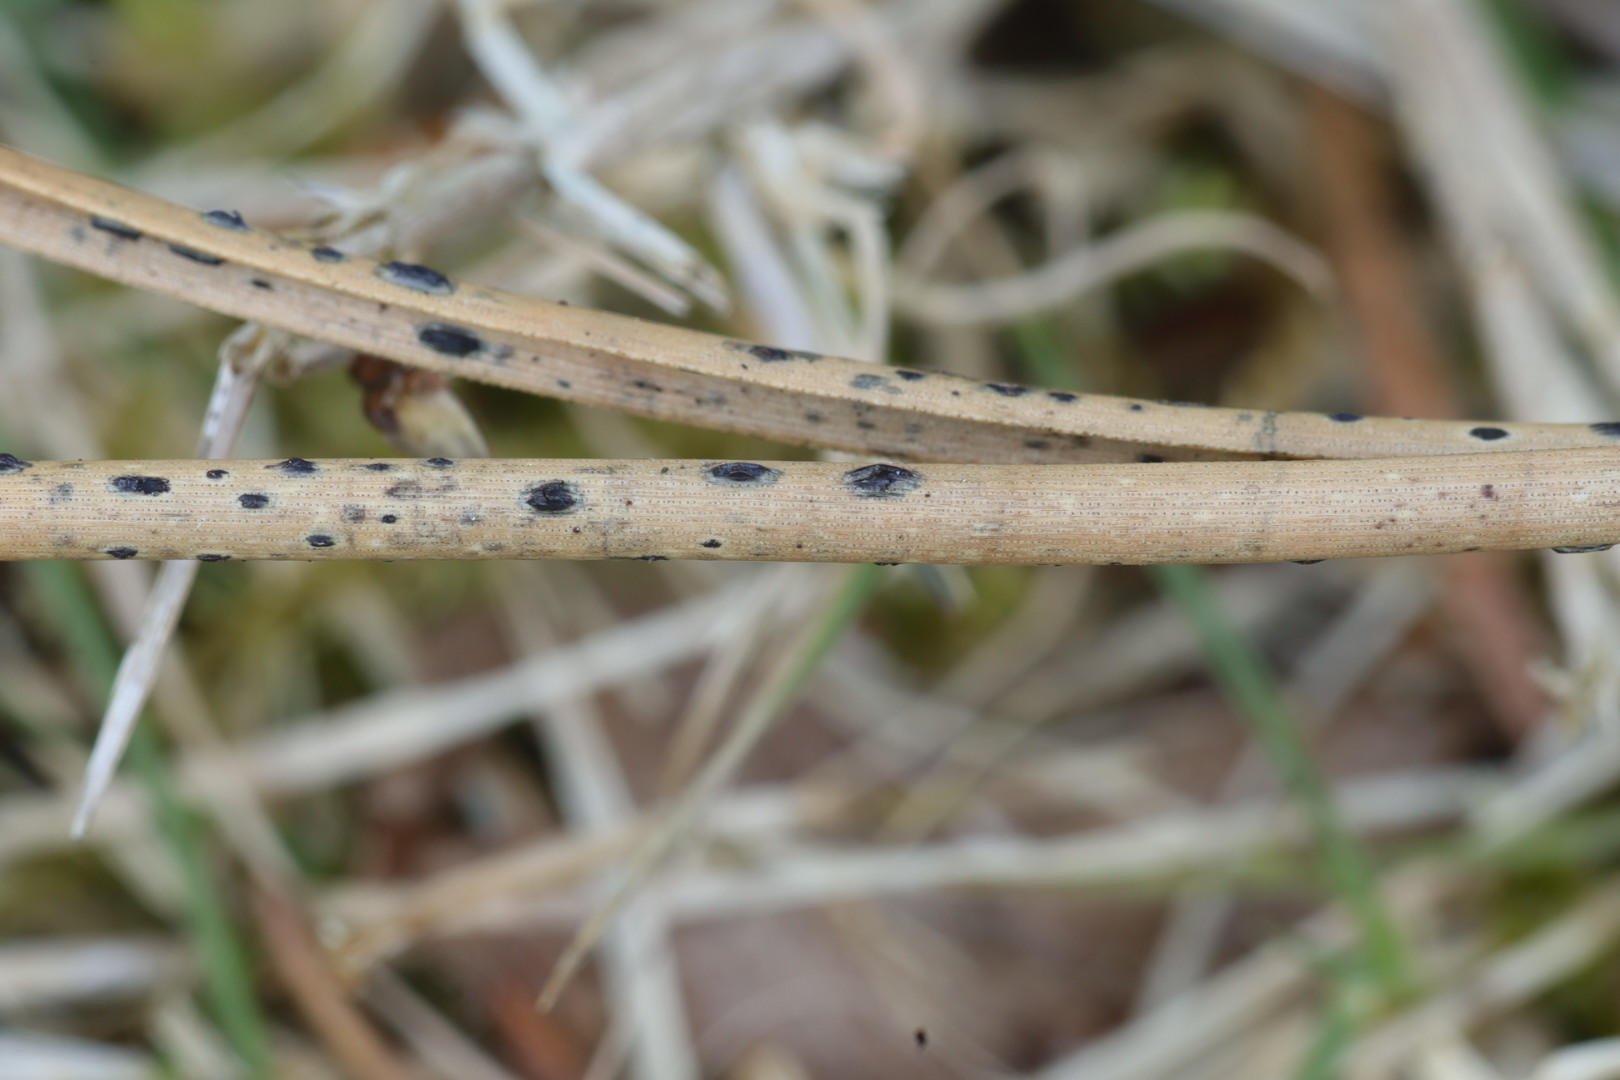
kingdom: Fungi
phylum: Ascomycota
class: Leotiomycetes
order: Rhytismatales
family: Rhytismataceae
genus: Lophodermium
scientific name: Lophodermium
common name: fureplet
